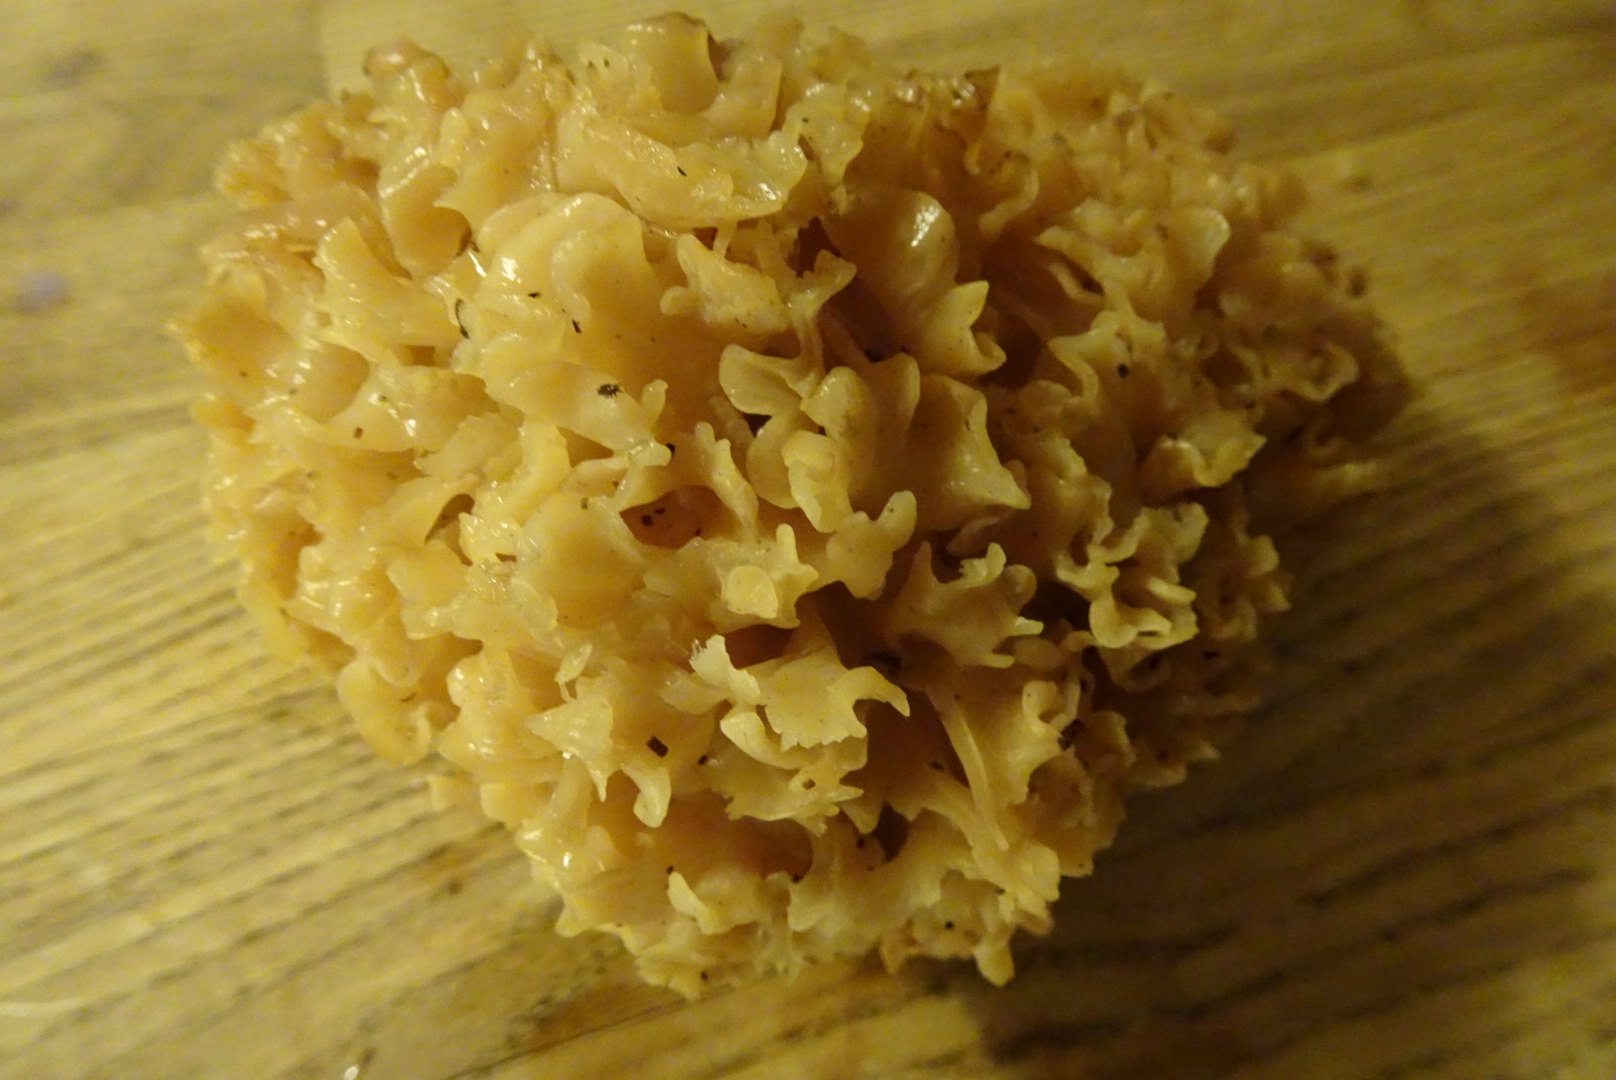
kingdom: Fungi
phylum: Basidiomycota
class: Agaricomycetes
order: Polyporales
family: Sparassidaceae
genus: Sparassis
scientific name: Sparassis crispa
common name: kruset blomkålssvamp
